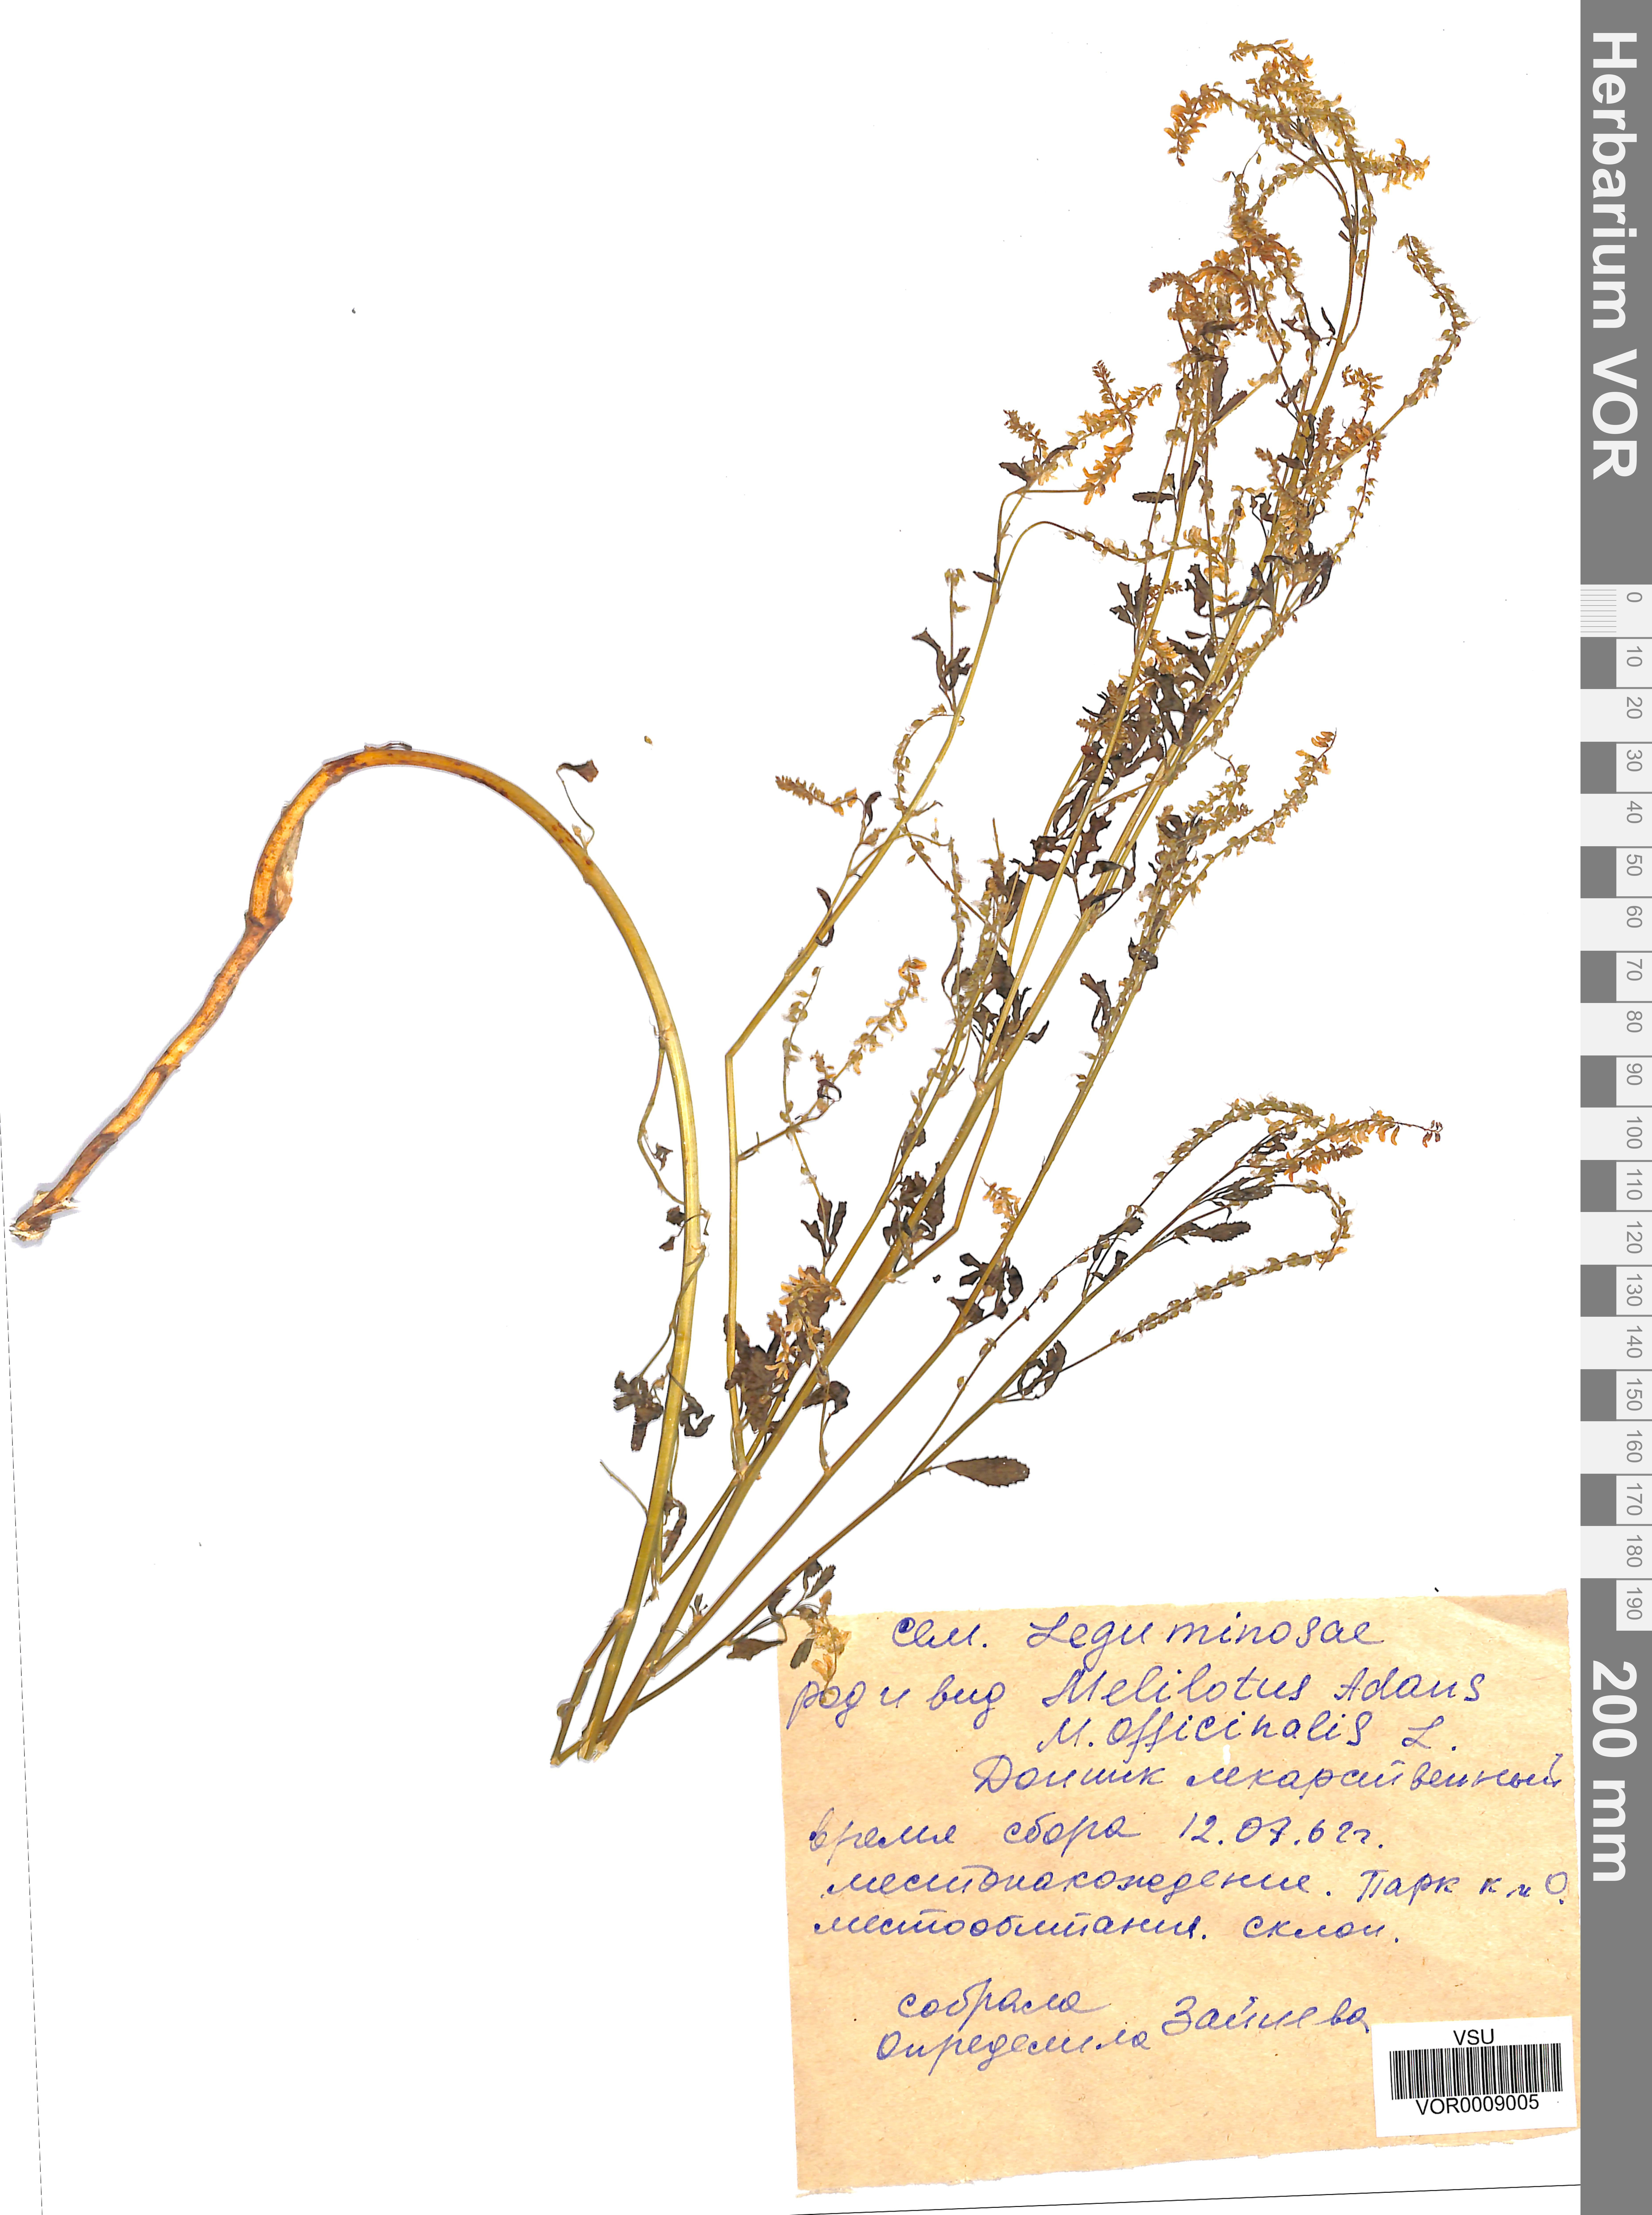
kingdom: Plantae
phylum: Tracheophyta
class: Magnoliopsida
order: Fabales
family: Fabaceae
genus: Melilotus
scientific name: Melilotus officinalis
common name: Sweetclover
